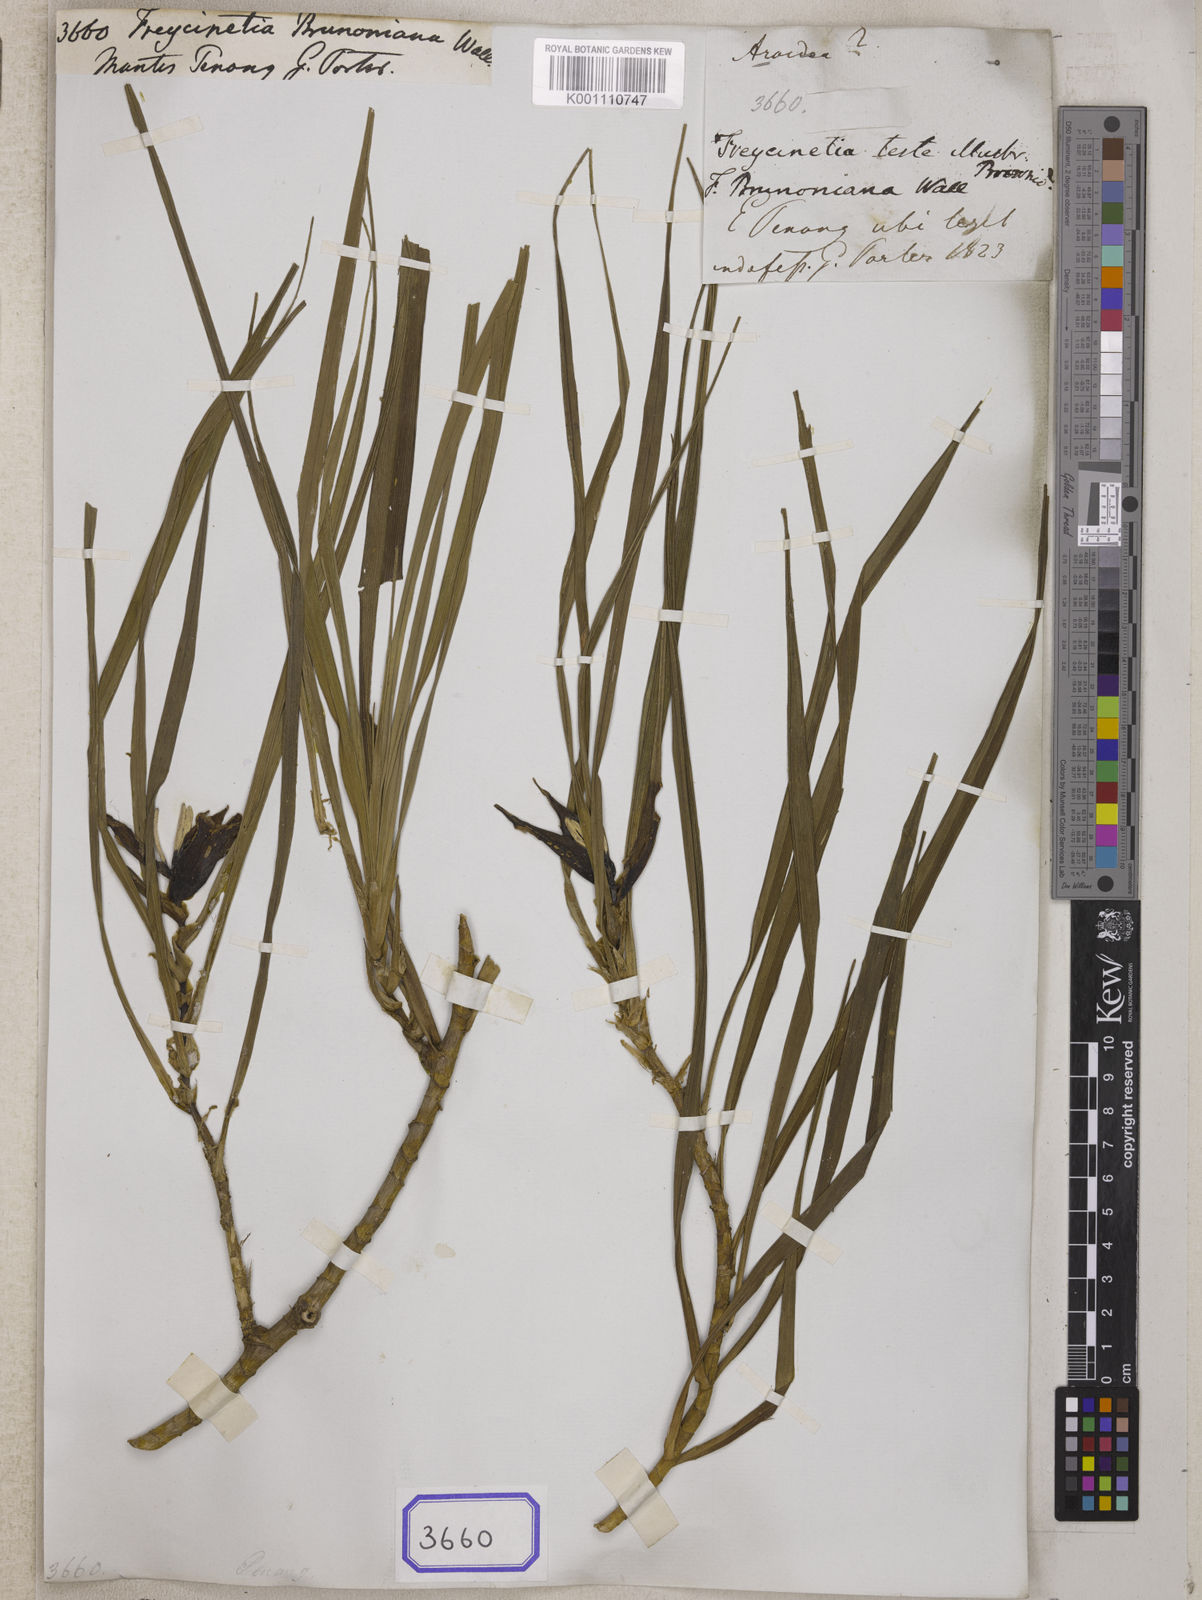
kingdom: Plantae
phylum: Tracheophyta
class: Liliopsida
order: Pandanales
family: Pandanaceae
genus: Freycinetia
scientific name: Freycinetia angustifolia
